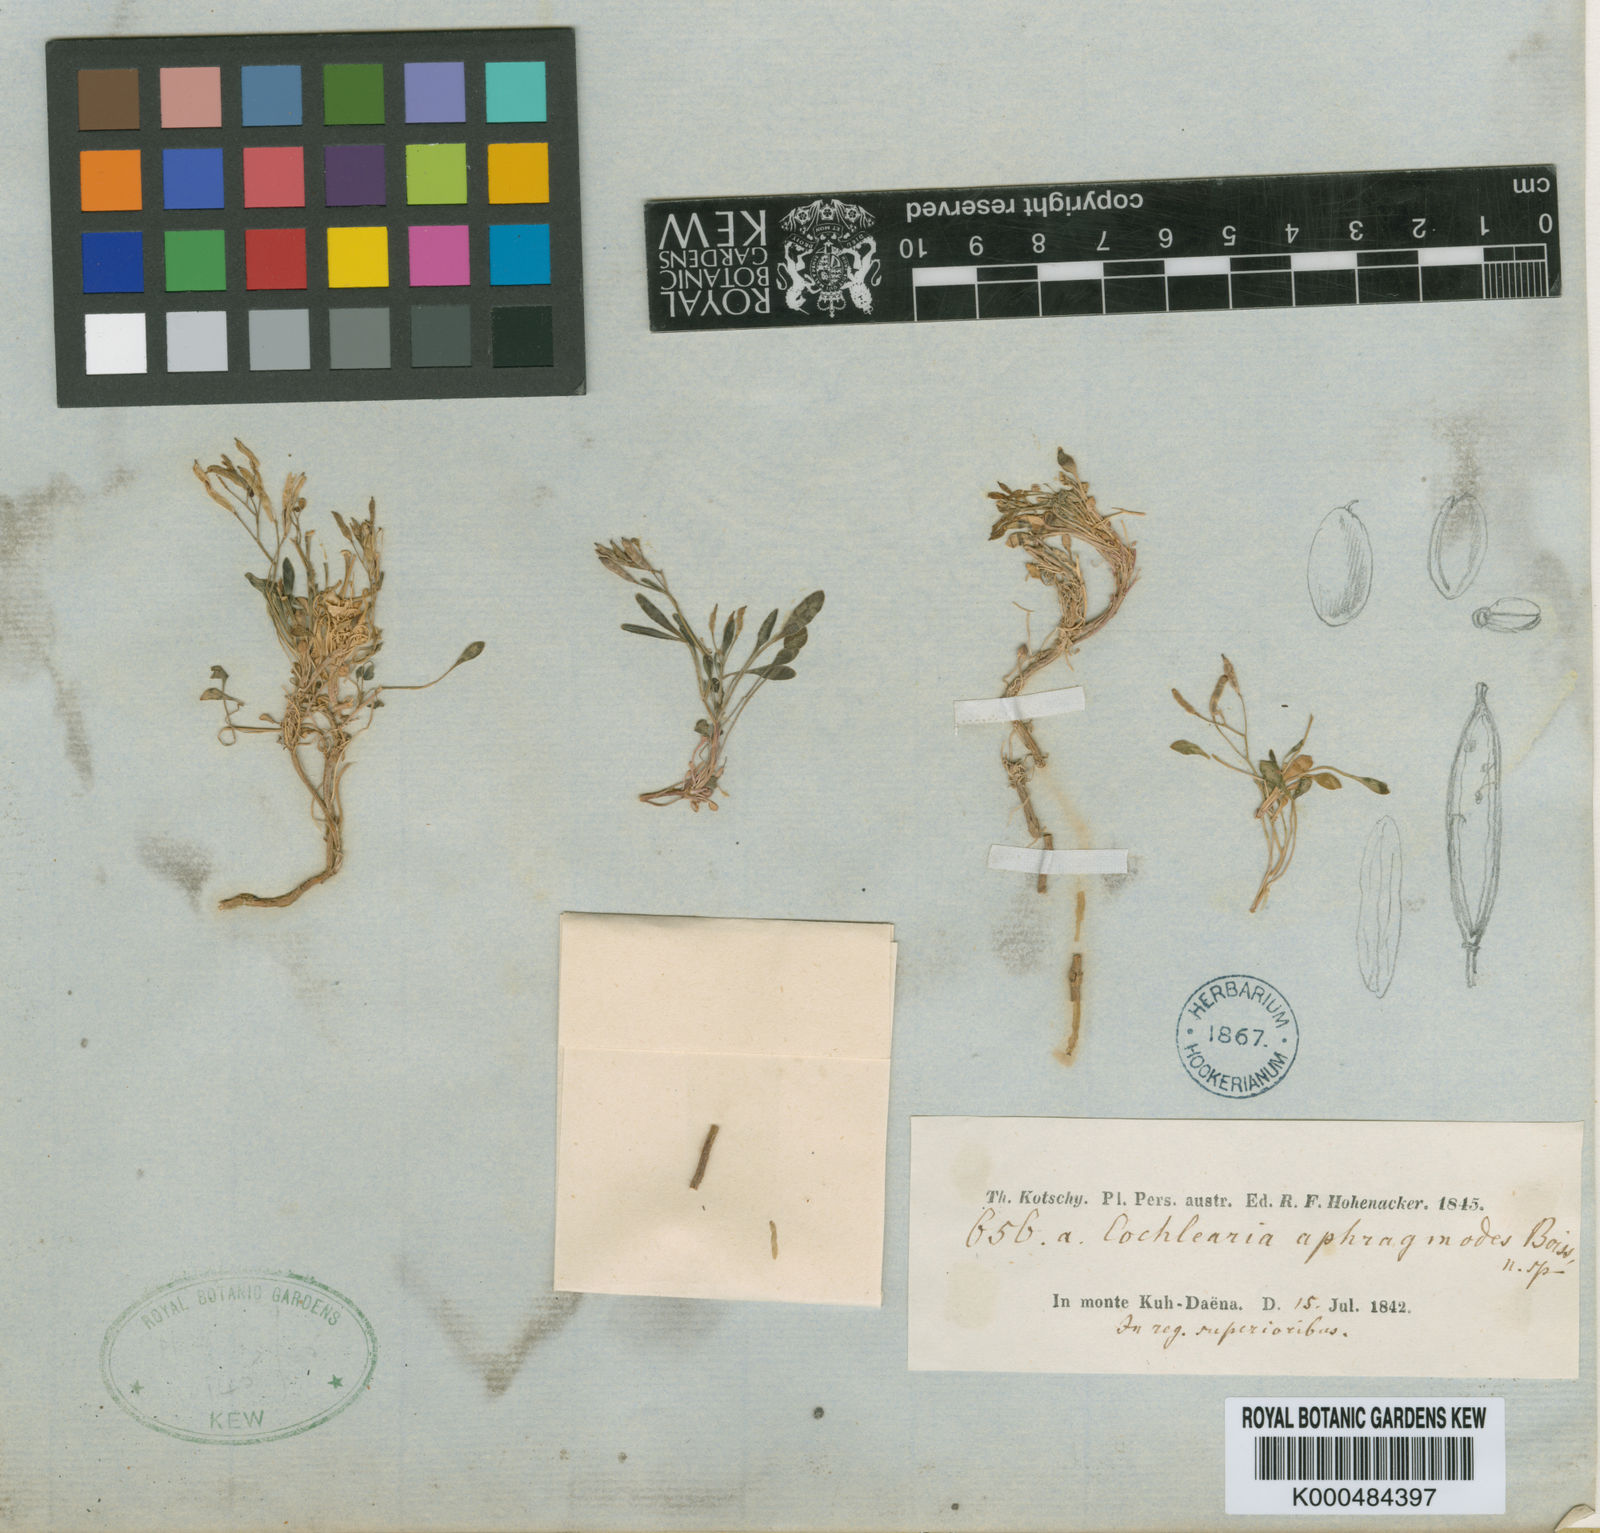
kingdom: Plantae
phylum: Tracheophyta
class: Magnoliopsida
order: Brassicales
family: Brassicaceae
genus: Pseudocamelina
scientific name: Pseudocamelina
